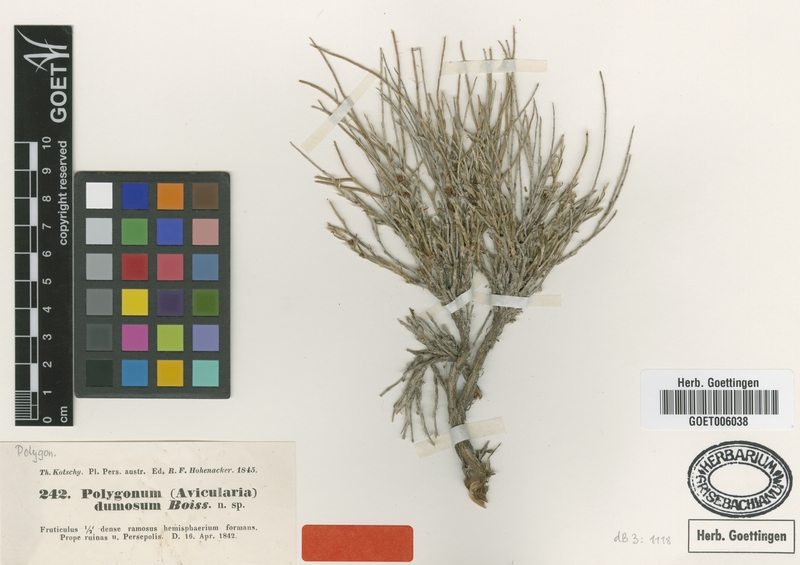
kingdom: Plantae
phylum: Tracheophyta
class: Magnoliopsida
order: Caryophyllales
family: Polygonaceae
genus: Atraphaxis
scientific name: Atraphaxis dumosa
